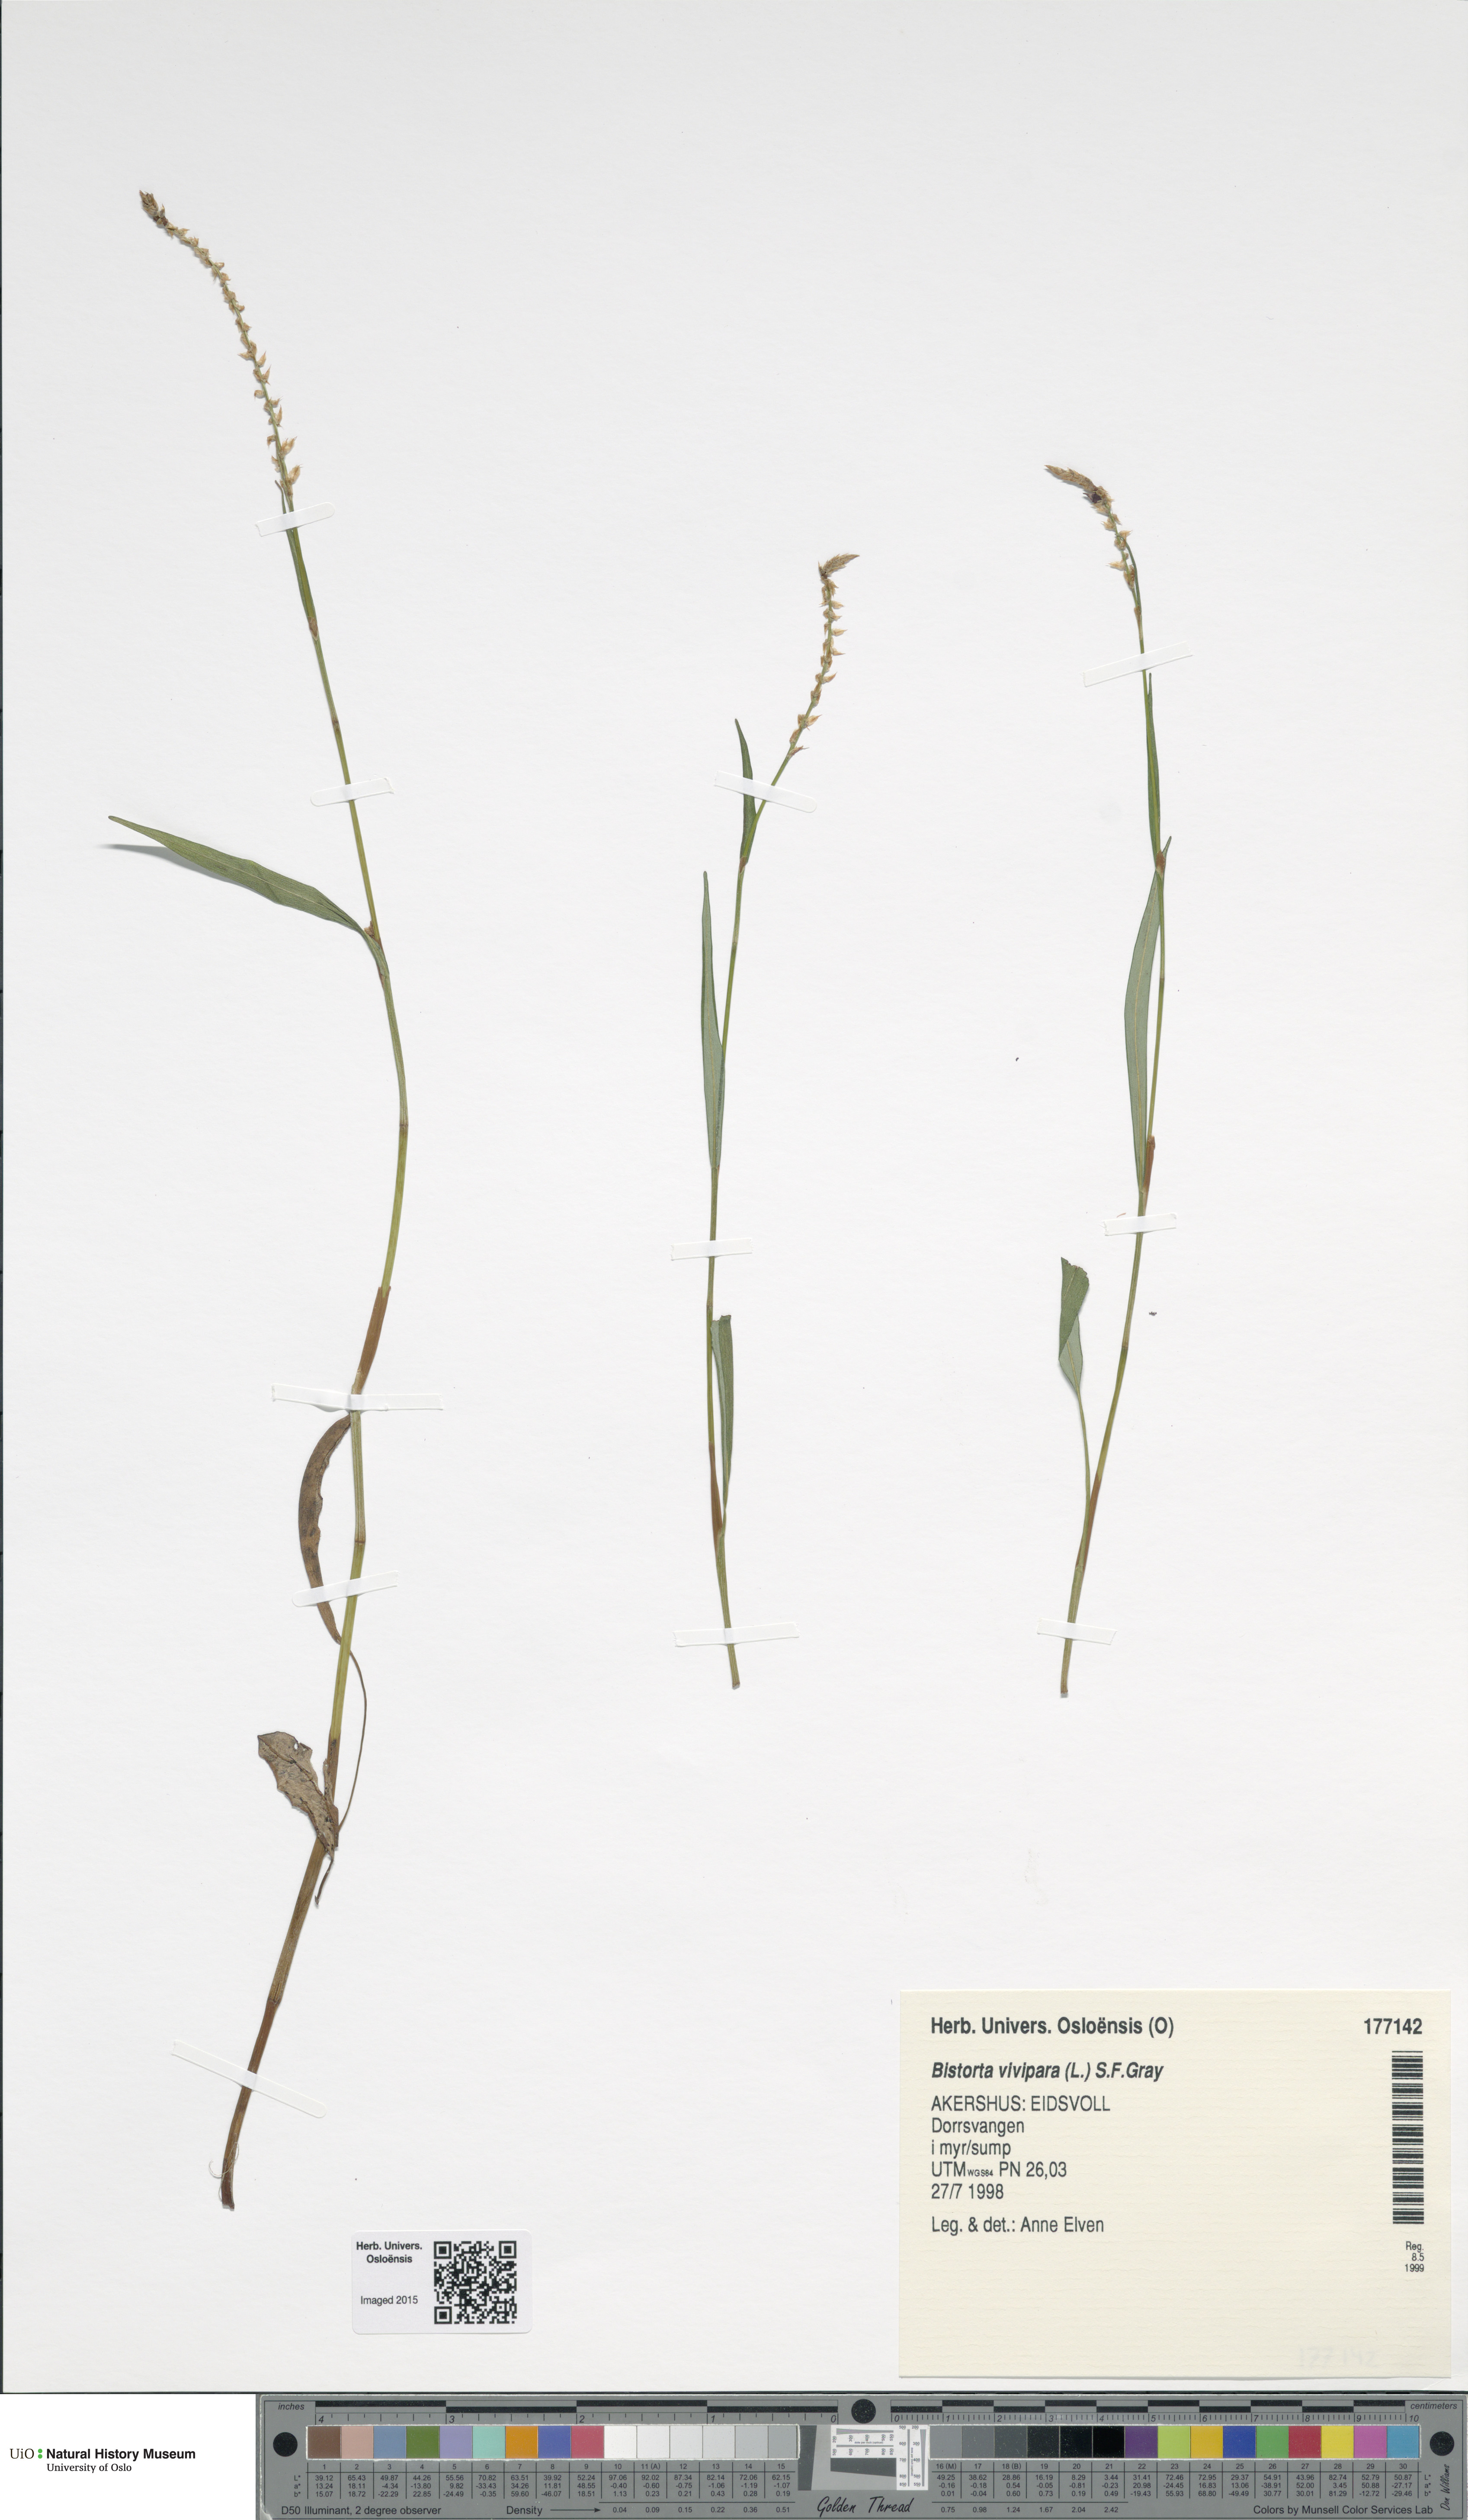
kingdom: Plantae
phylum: Tracheophyta
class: Magnoliopsida
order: Caryophyllales
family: Polygonaceae
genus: Bistorta
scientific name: Bistorta vivipara
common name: Alpine bistort
